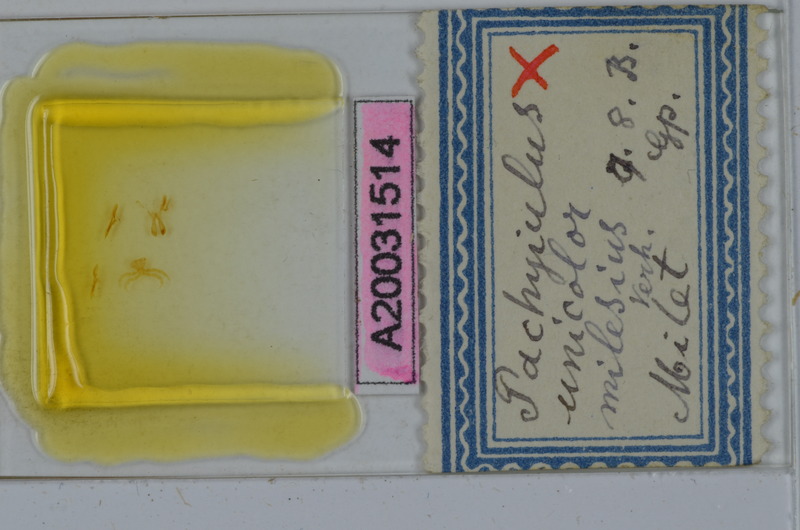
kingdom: Animalia
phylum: Arthropoda
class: Diplopoda
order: Julida
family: Julidae
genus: Pachyiulus
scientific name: Pachyiulus unicolor
